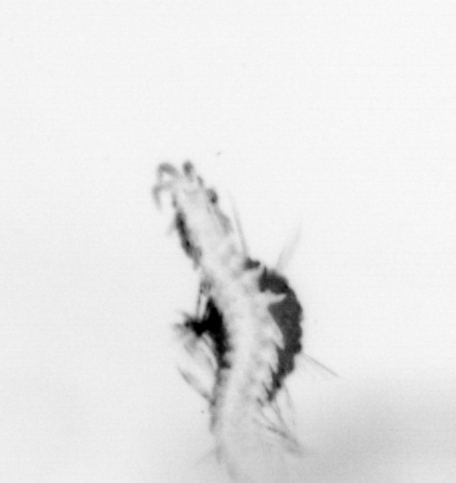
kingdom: Animalia
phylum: Annelida
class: Polychaeta
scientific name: Polychaeta
